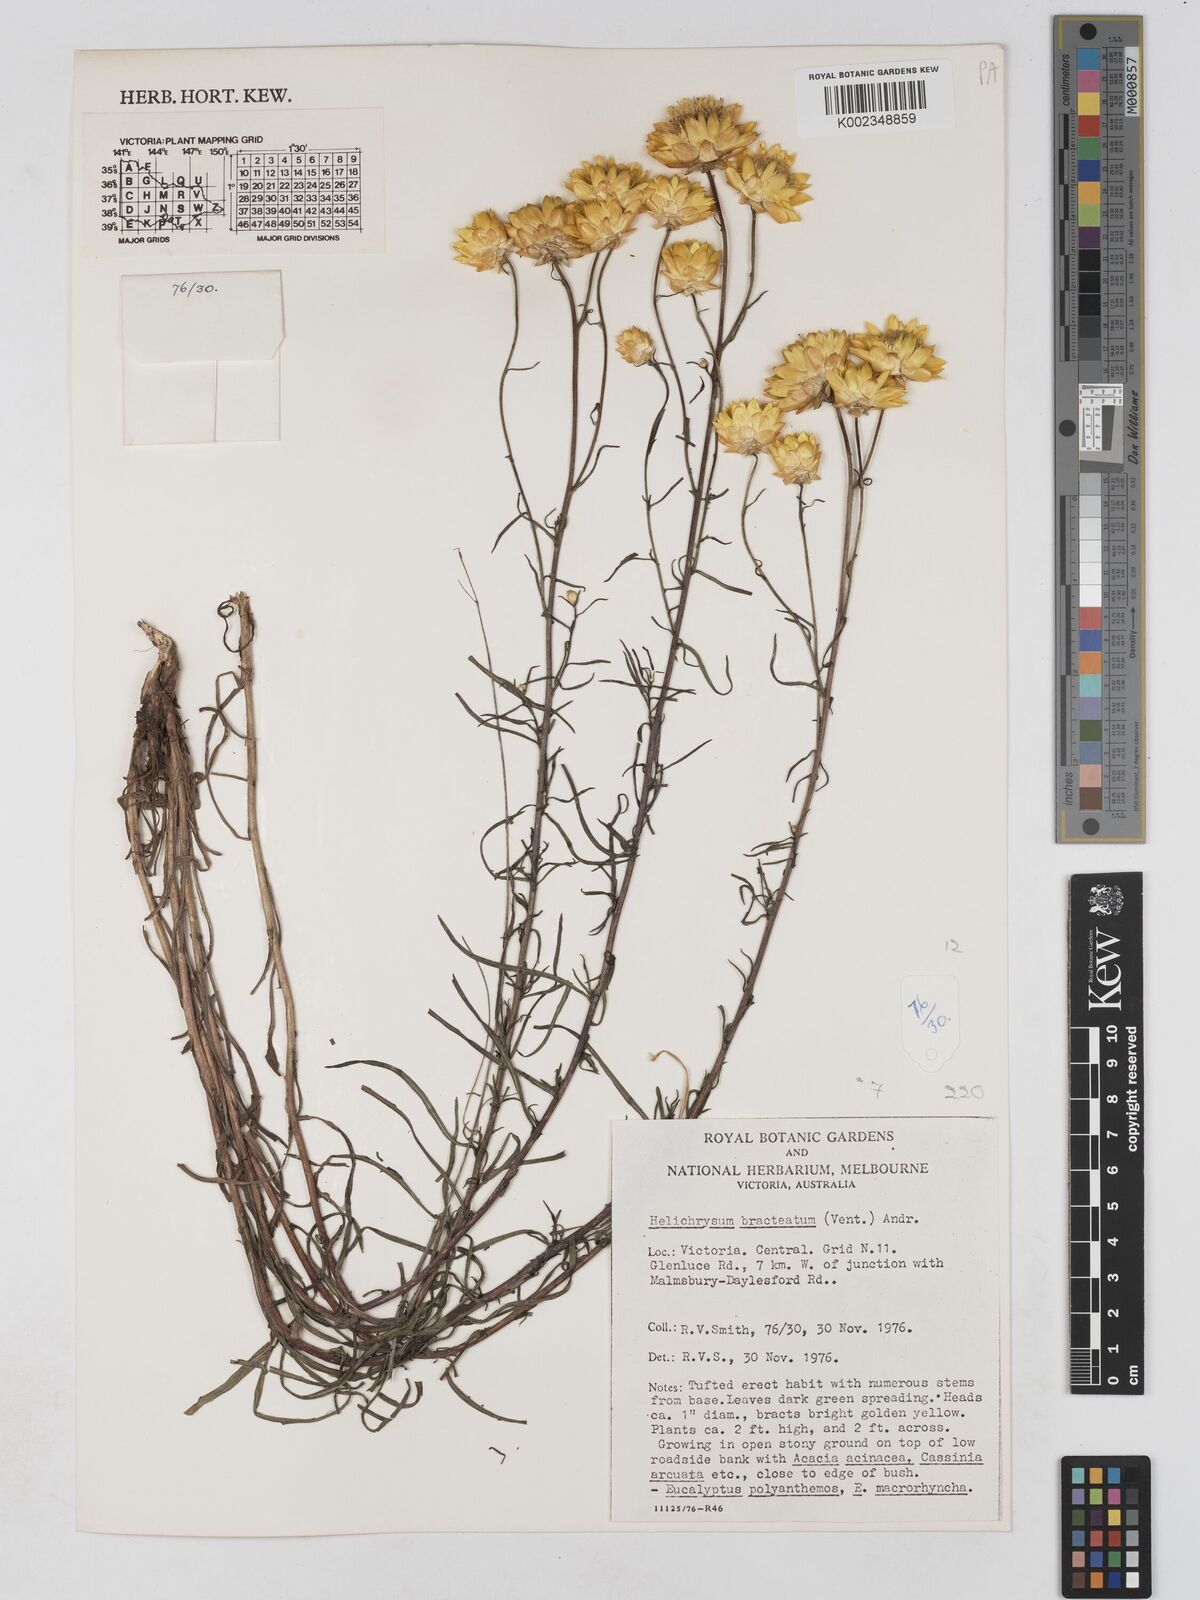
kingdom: Plantae
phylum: Tracheophyta
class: Magnoliopsida
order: Asterales
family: Asteraceae
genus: Xerochrysum
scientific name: Xerochrysum bracteatum
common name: Bracted strawflower
